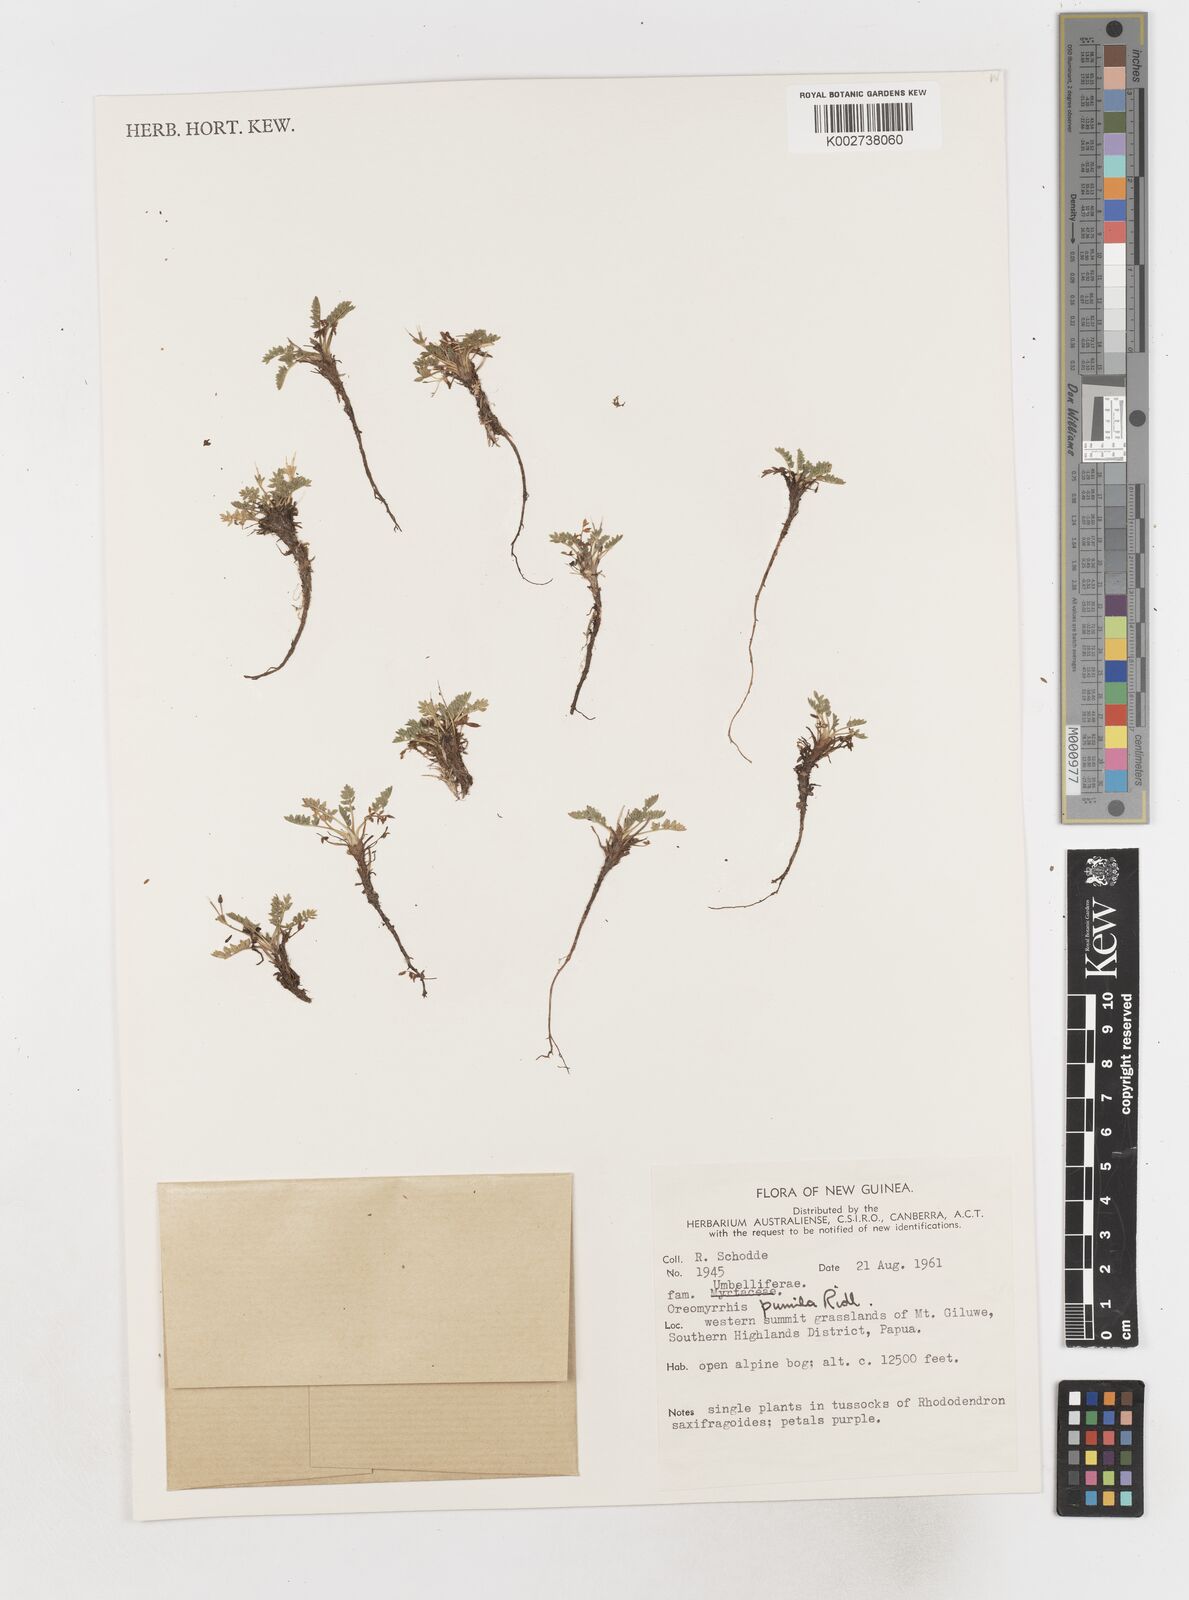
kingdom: Plantae
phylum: Tracheophyta
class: Magnoliopsida
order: Apiales
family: Apiaceae
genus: Chaerophyllum
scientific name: Chaerophyllum pumilum
